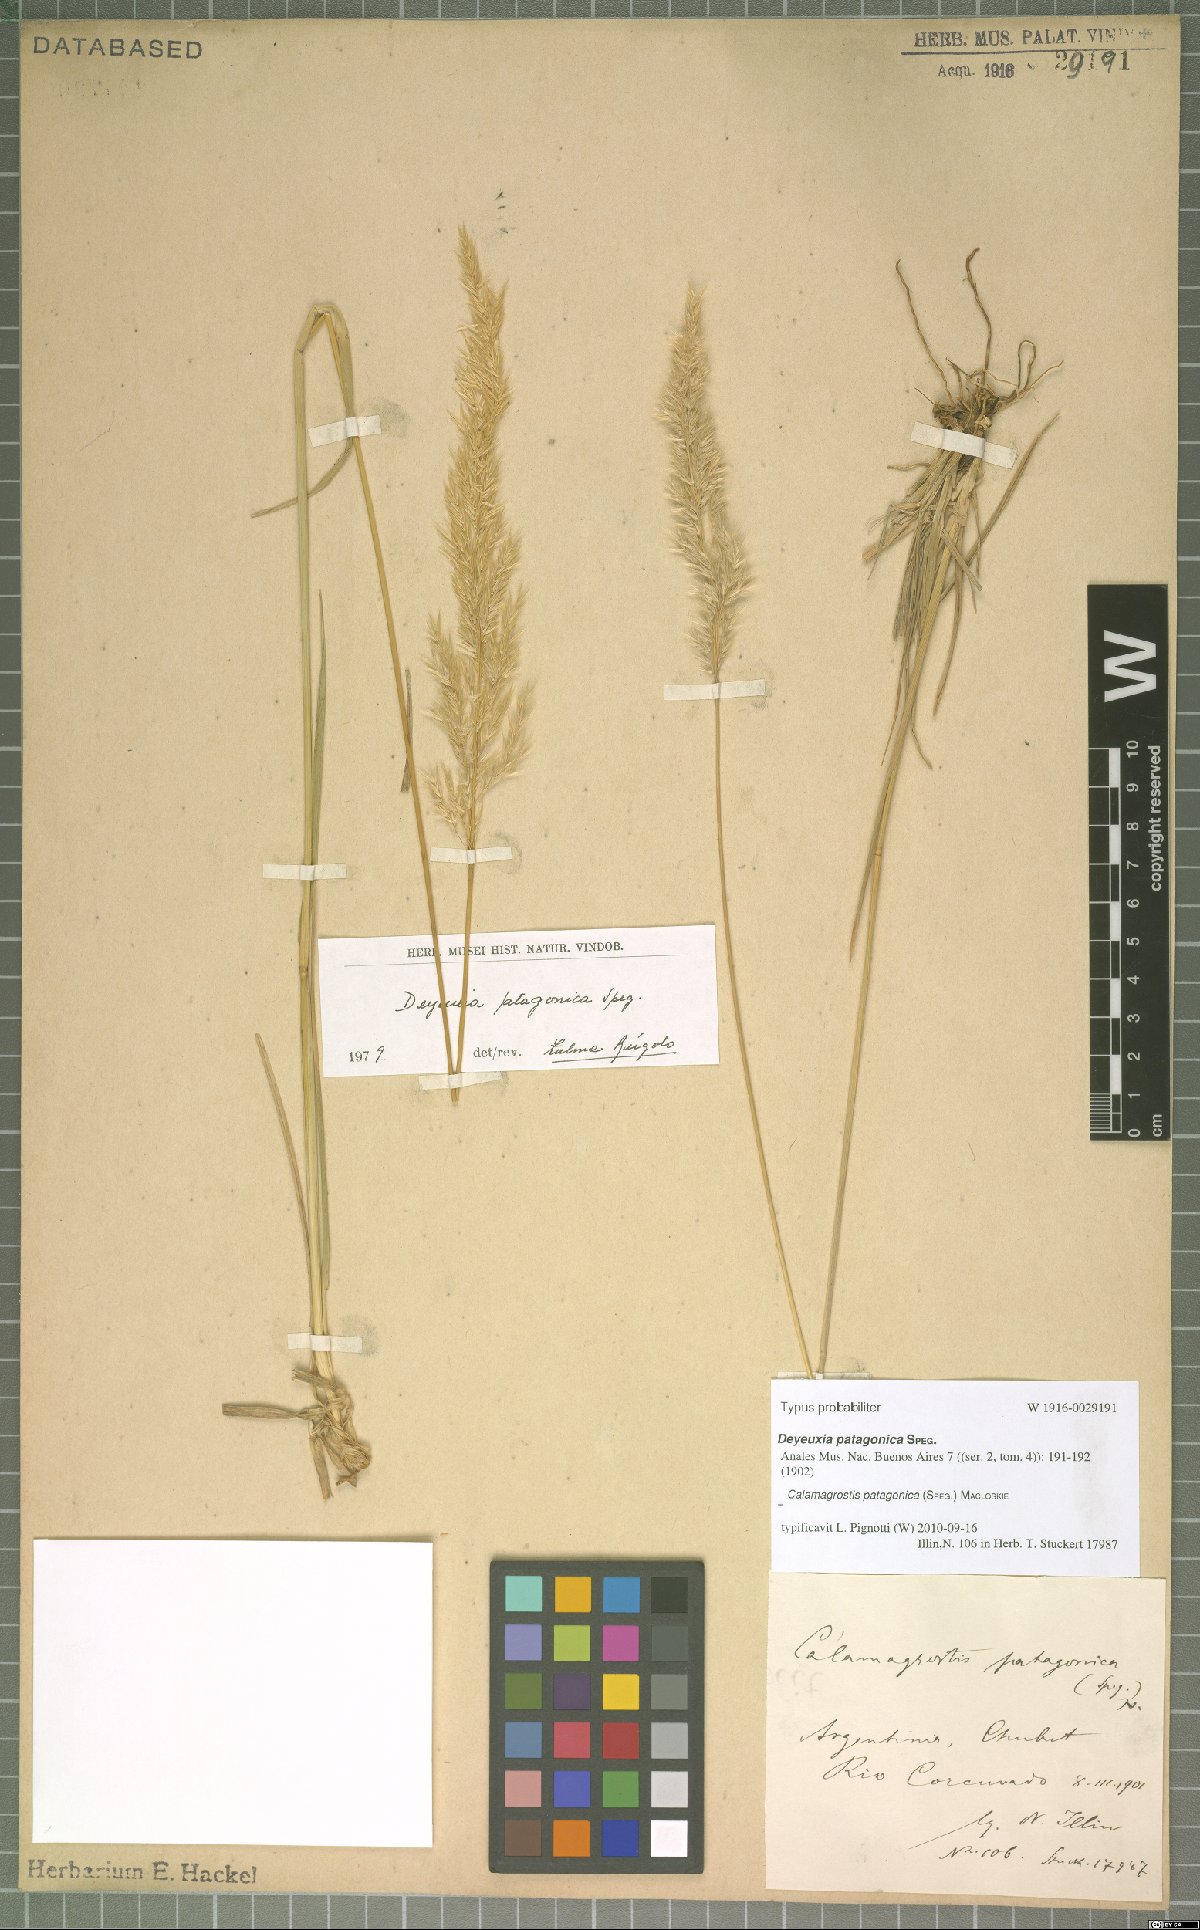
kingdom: Plantae
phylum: Tracheophyta
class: Liliopsida
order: Poales
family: Poaceae
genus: Cinnagrostis
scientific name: Cinnagrostis patagonica
